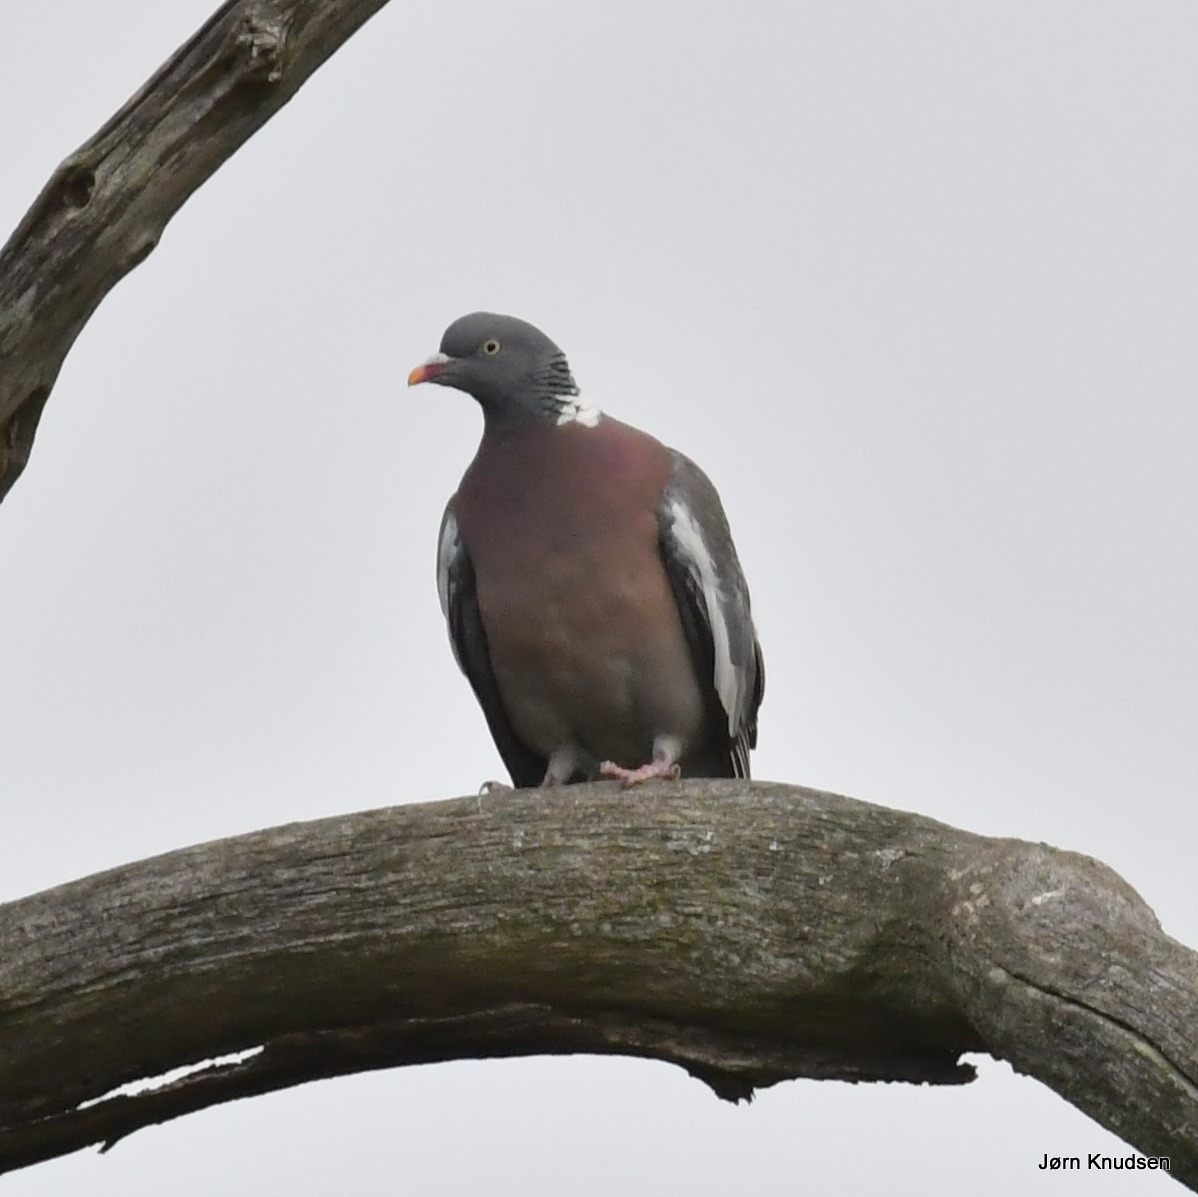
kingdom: Animalia
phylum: Chordata
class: Aves
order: Columbiformes
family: Columbidae
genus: Columba
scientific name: Columba palumbus
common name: Ringdue
